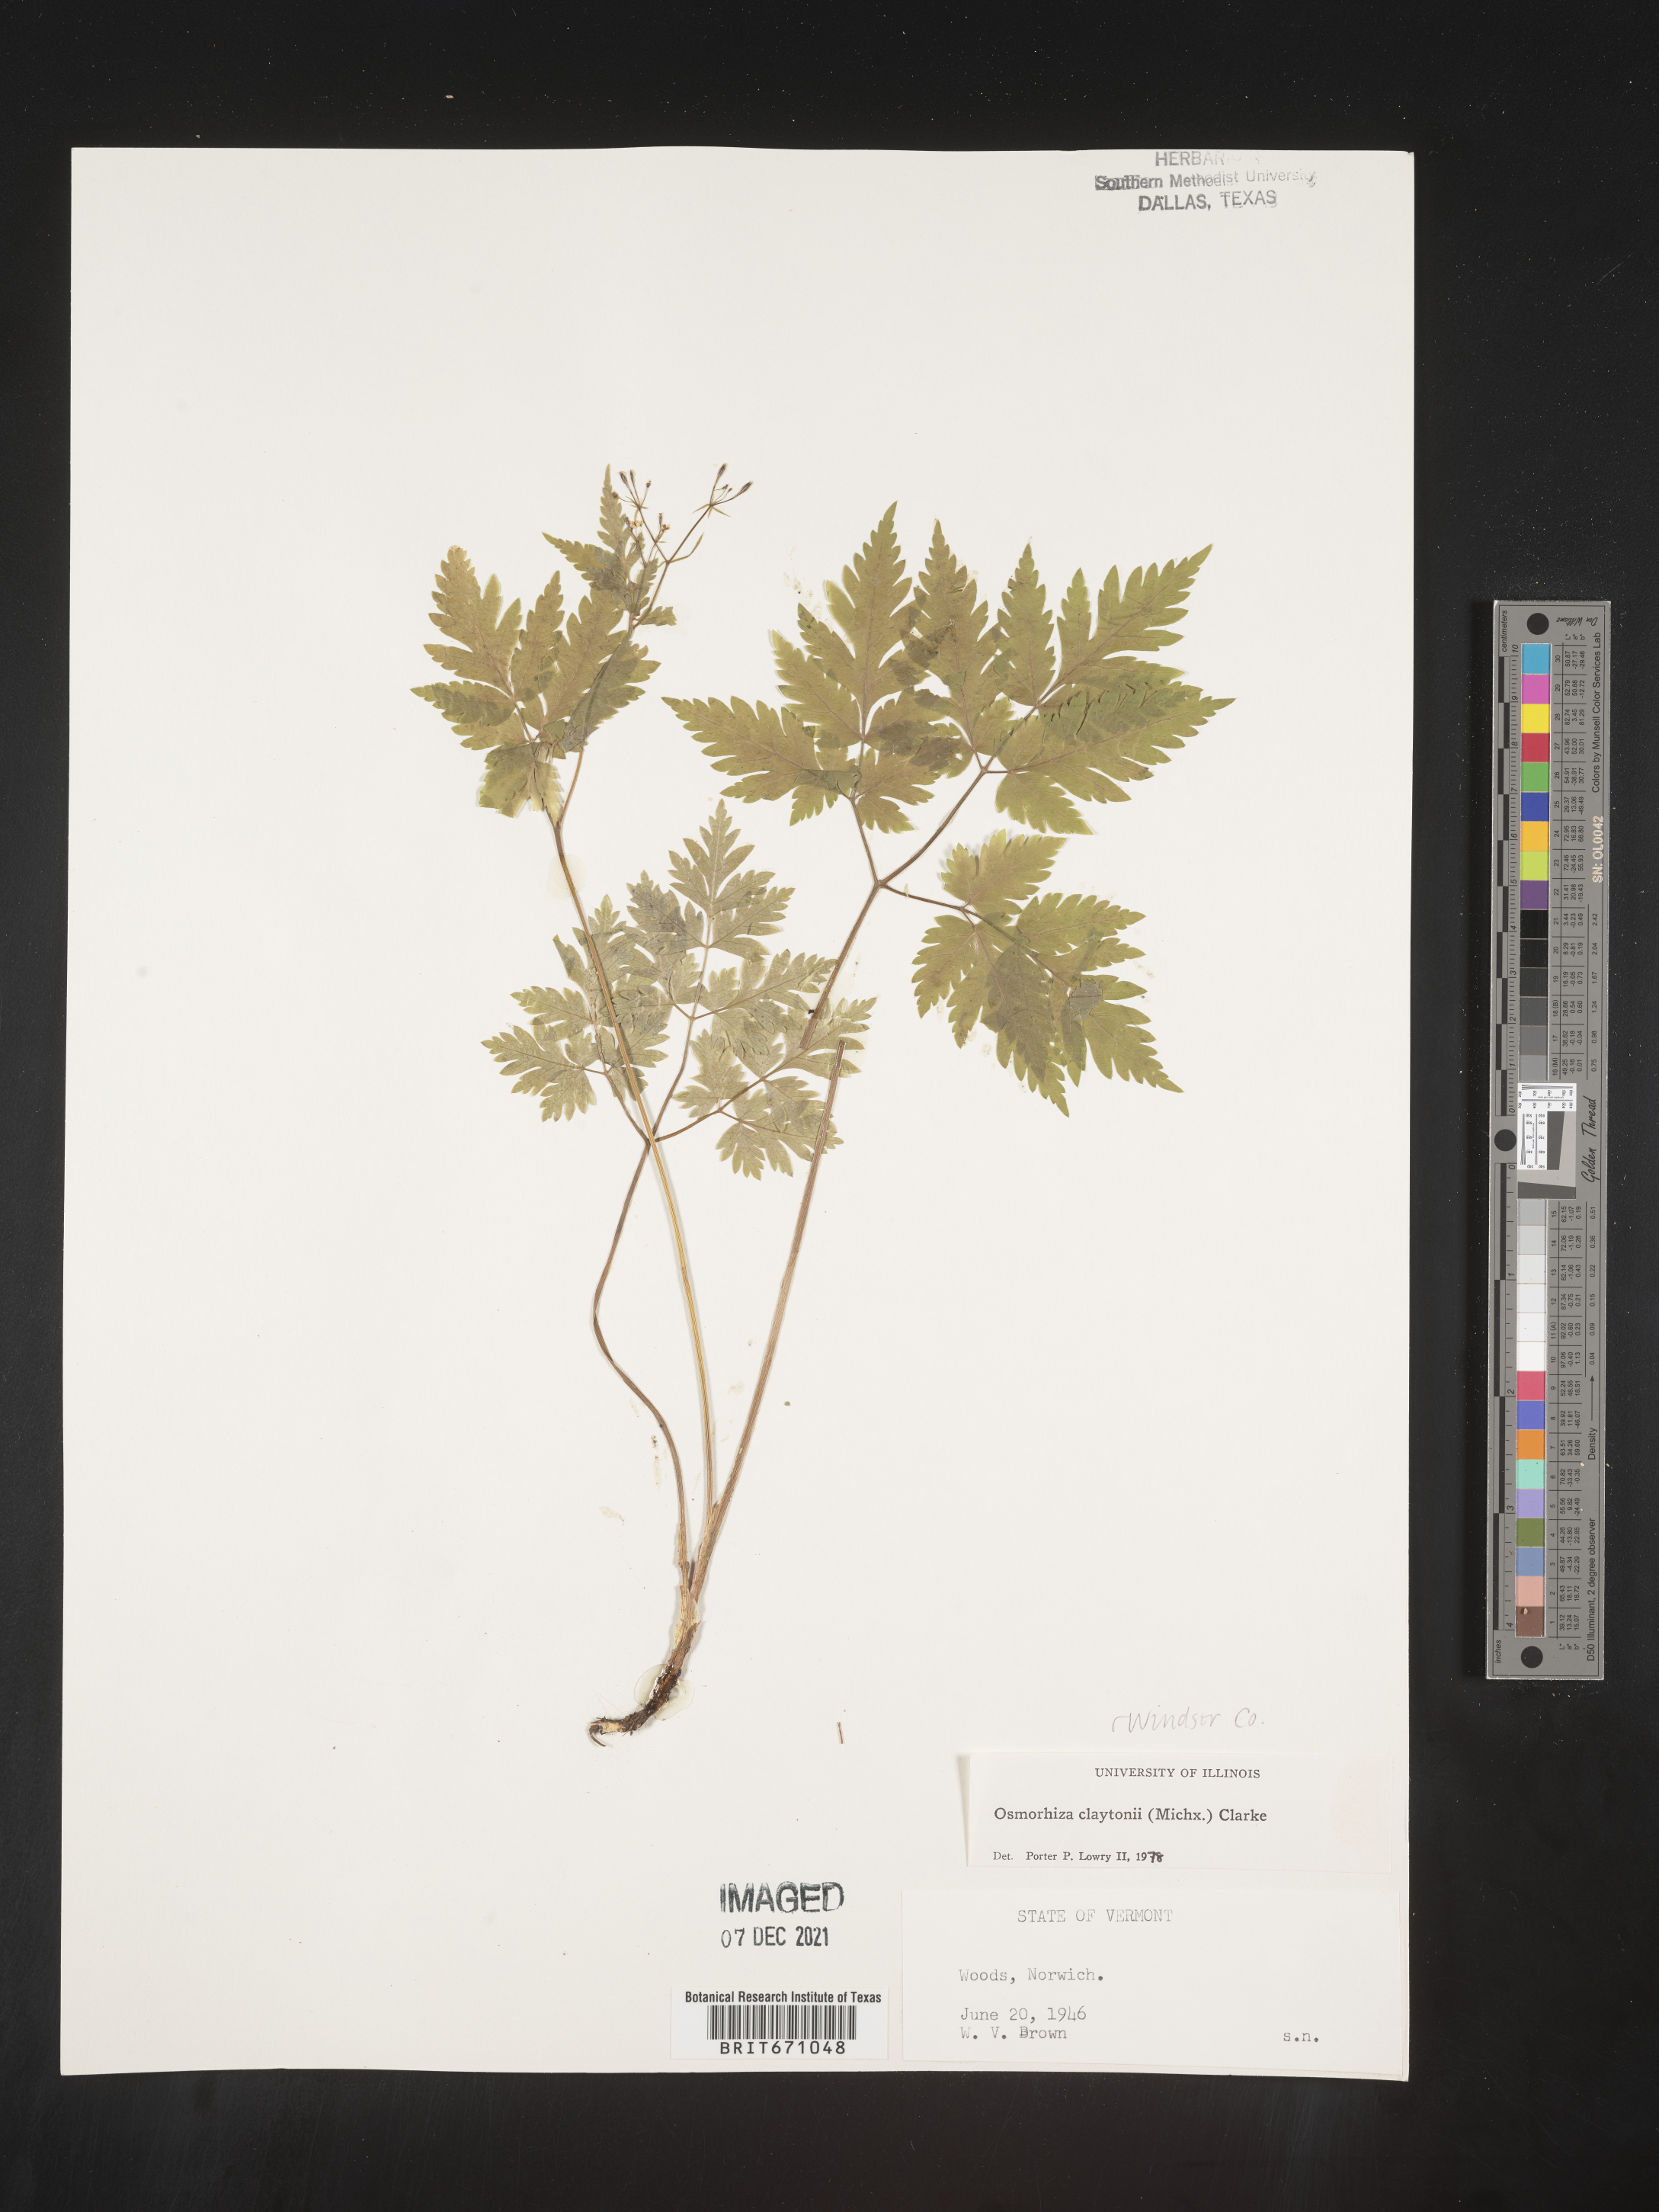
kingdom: Plantae
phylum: Tracheophyta
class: Magnoliopsida
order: Apiales
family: Apiaceae
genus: Osmorhiza
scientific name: Osmorhiza claytonii
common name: Hairy sweet cicely
